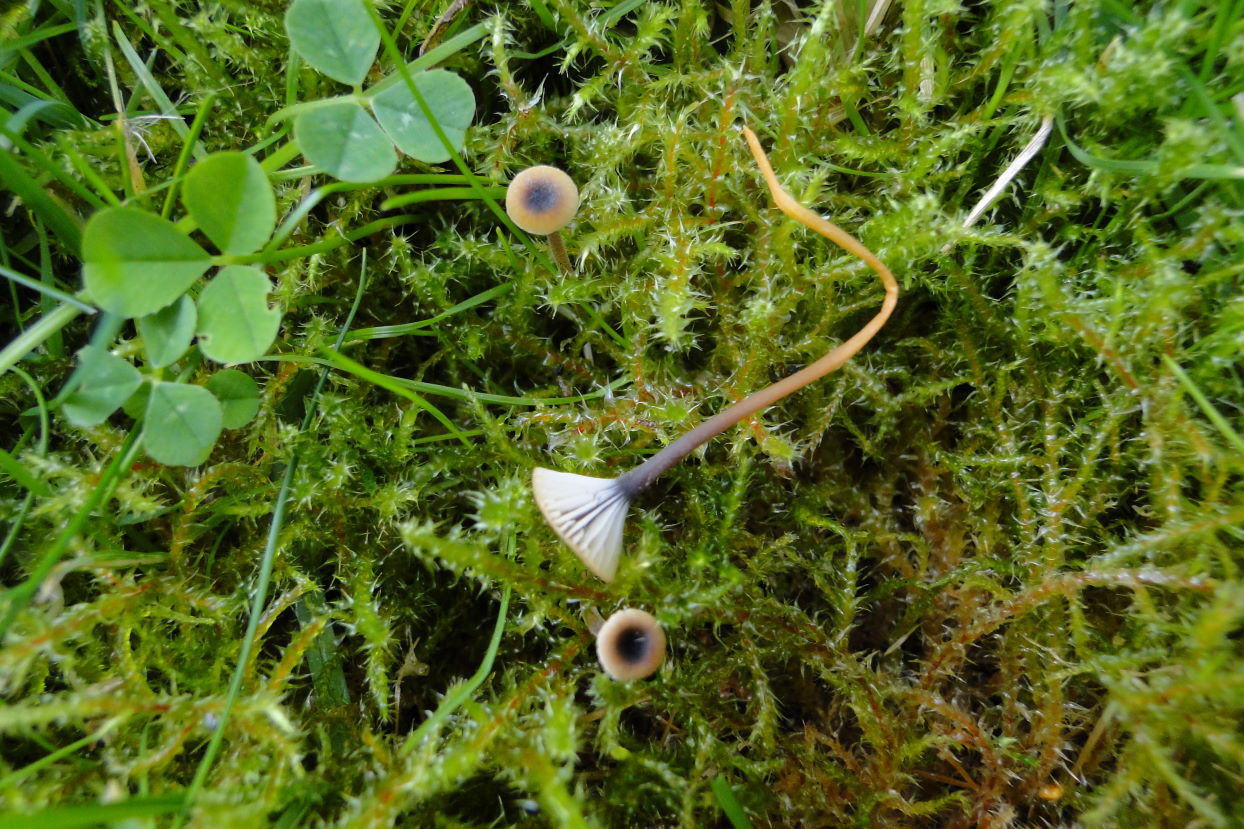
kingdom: Fungi
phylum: Basidiomycota
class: Agaricomycetes
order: Hymenochaetales
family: Rickenellaceae
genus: Rickenella
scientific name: Rickenella swartzii
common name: finstokket mosnavlehat
